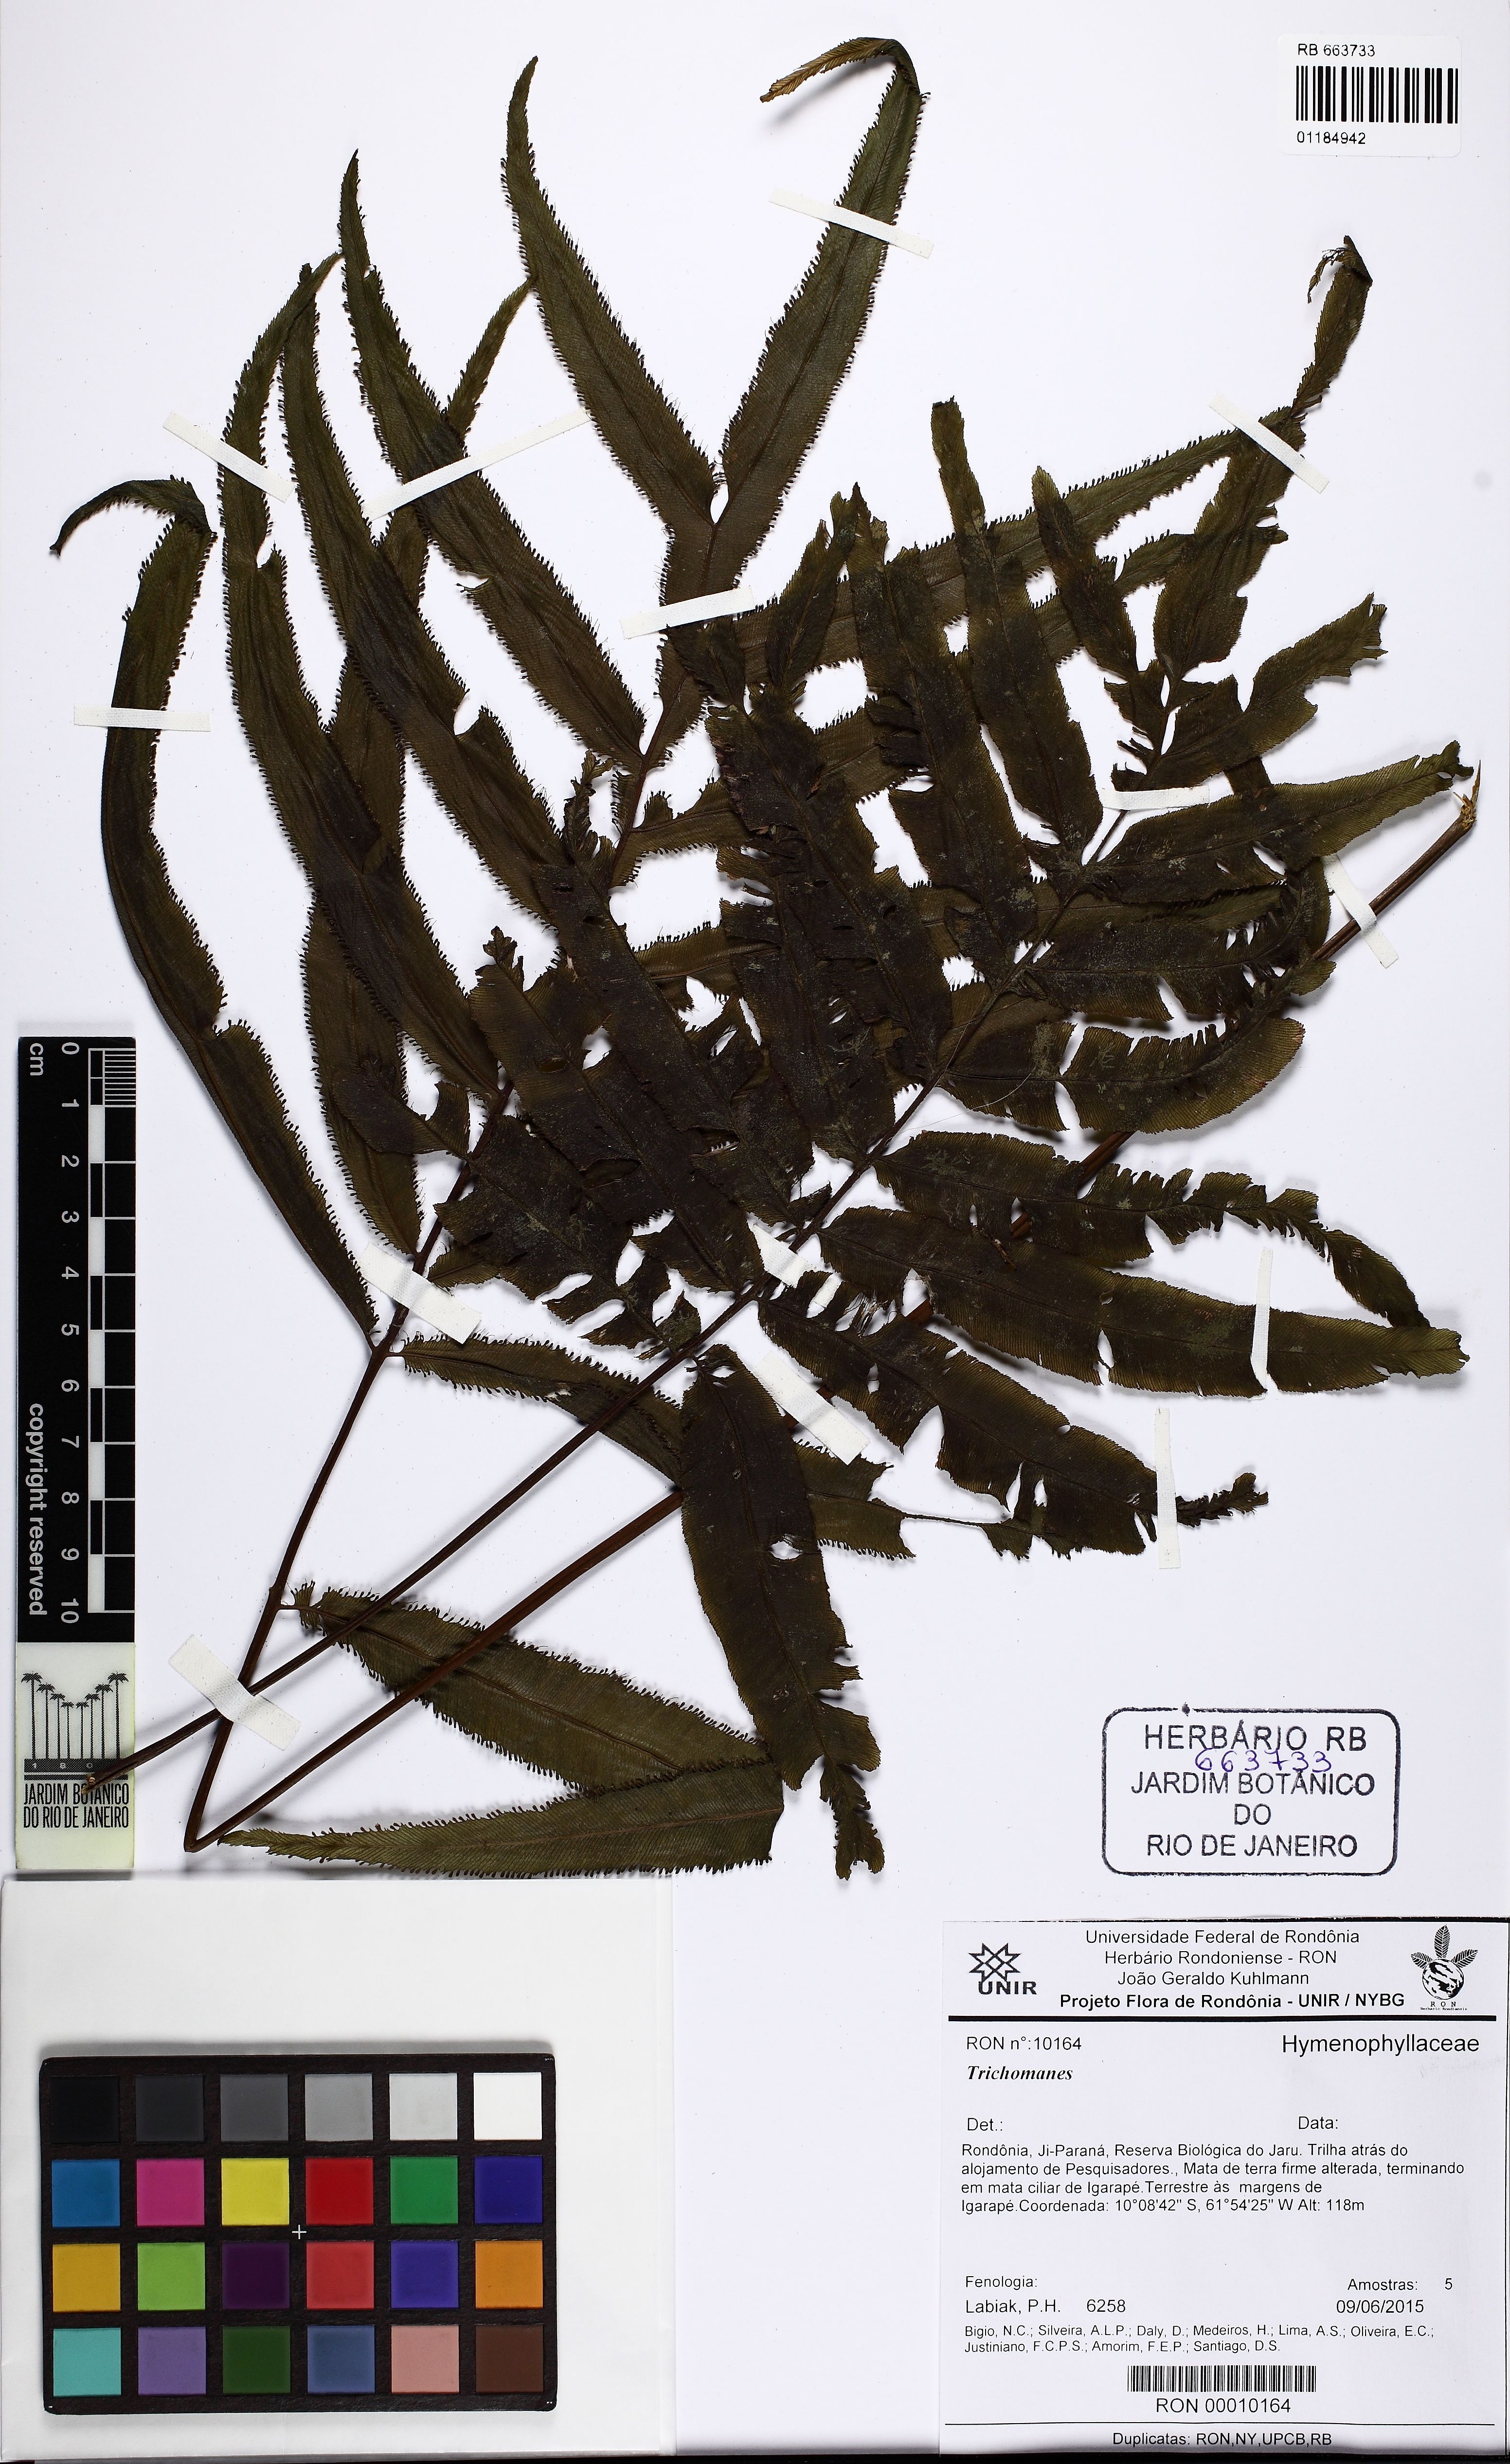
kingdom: Plantae
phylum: Tracheophyta
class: Polypodiopsida
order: Hymenophyllales
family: Hymenophyllaceae
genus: Trichomanes
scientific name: Trichomanes
